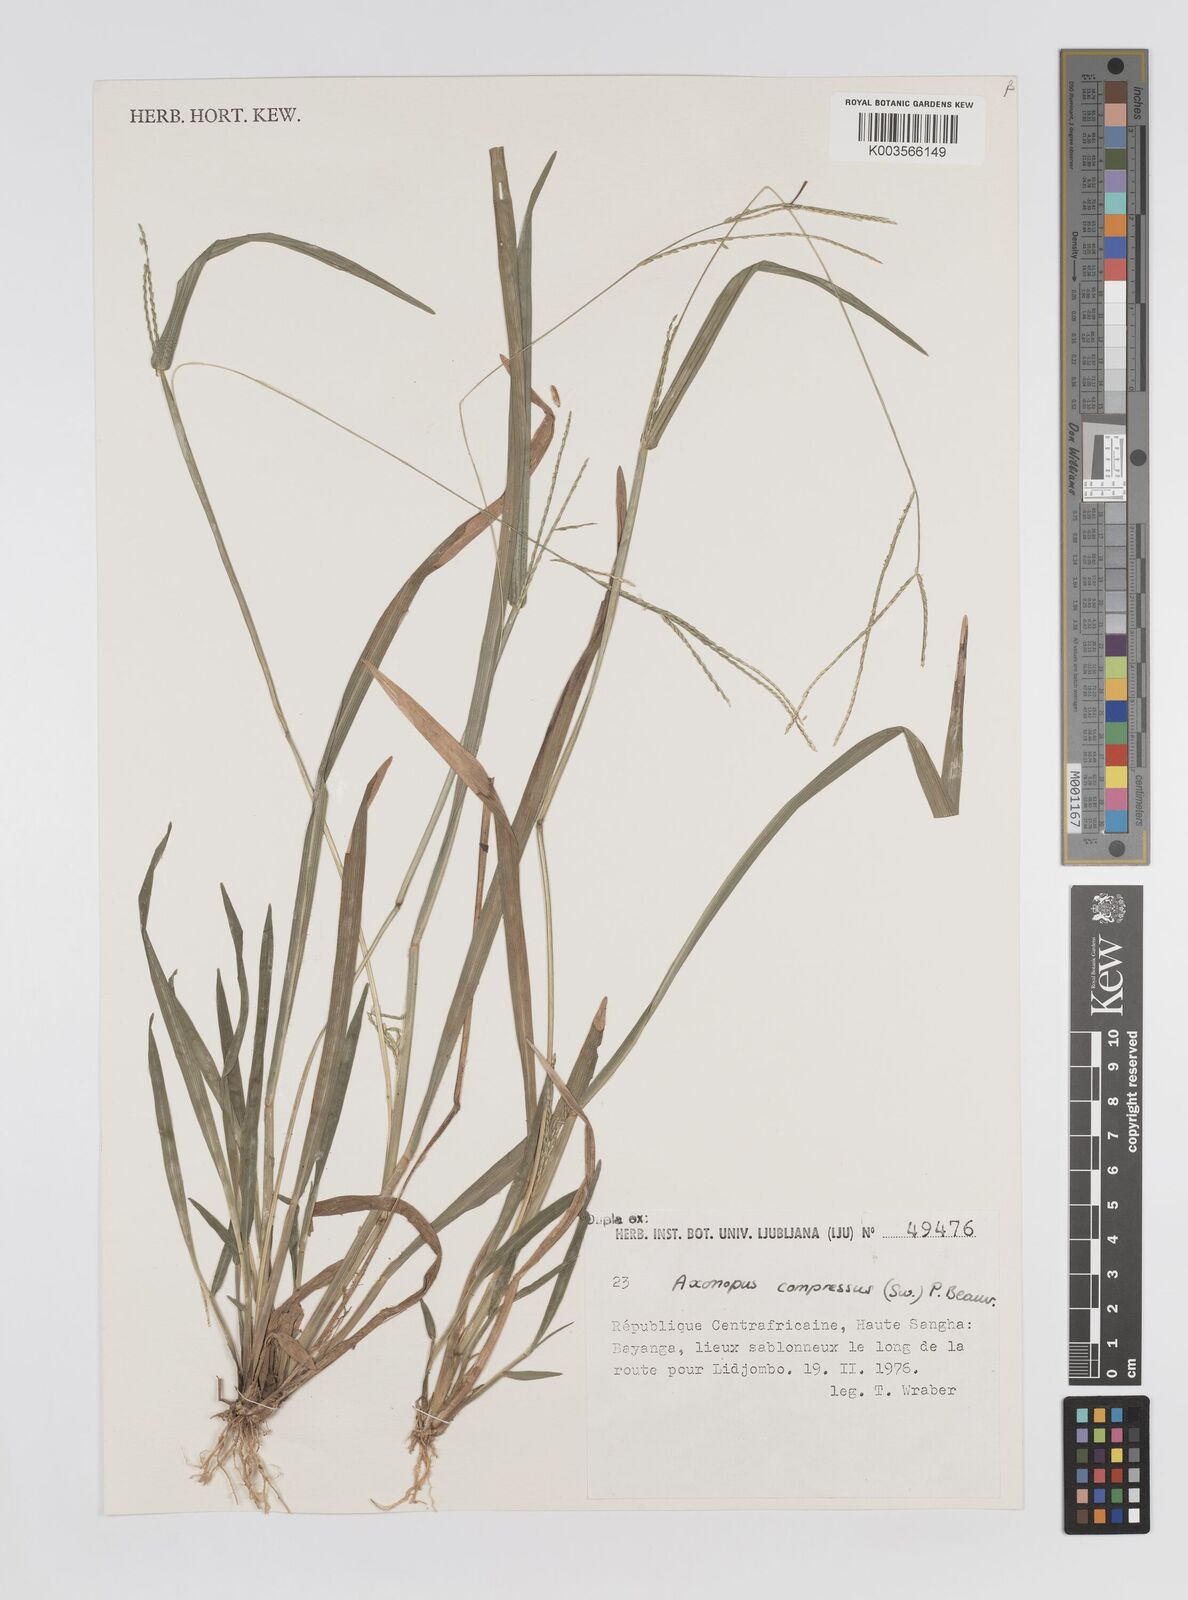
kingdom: Plantae
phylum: Tracheophyta
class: Liliopsida
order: Poales
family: Poaceae
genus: Axonopus
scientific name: Axonopus compressus
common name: American carpet grass
